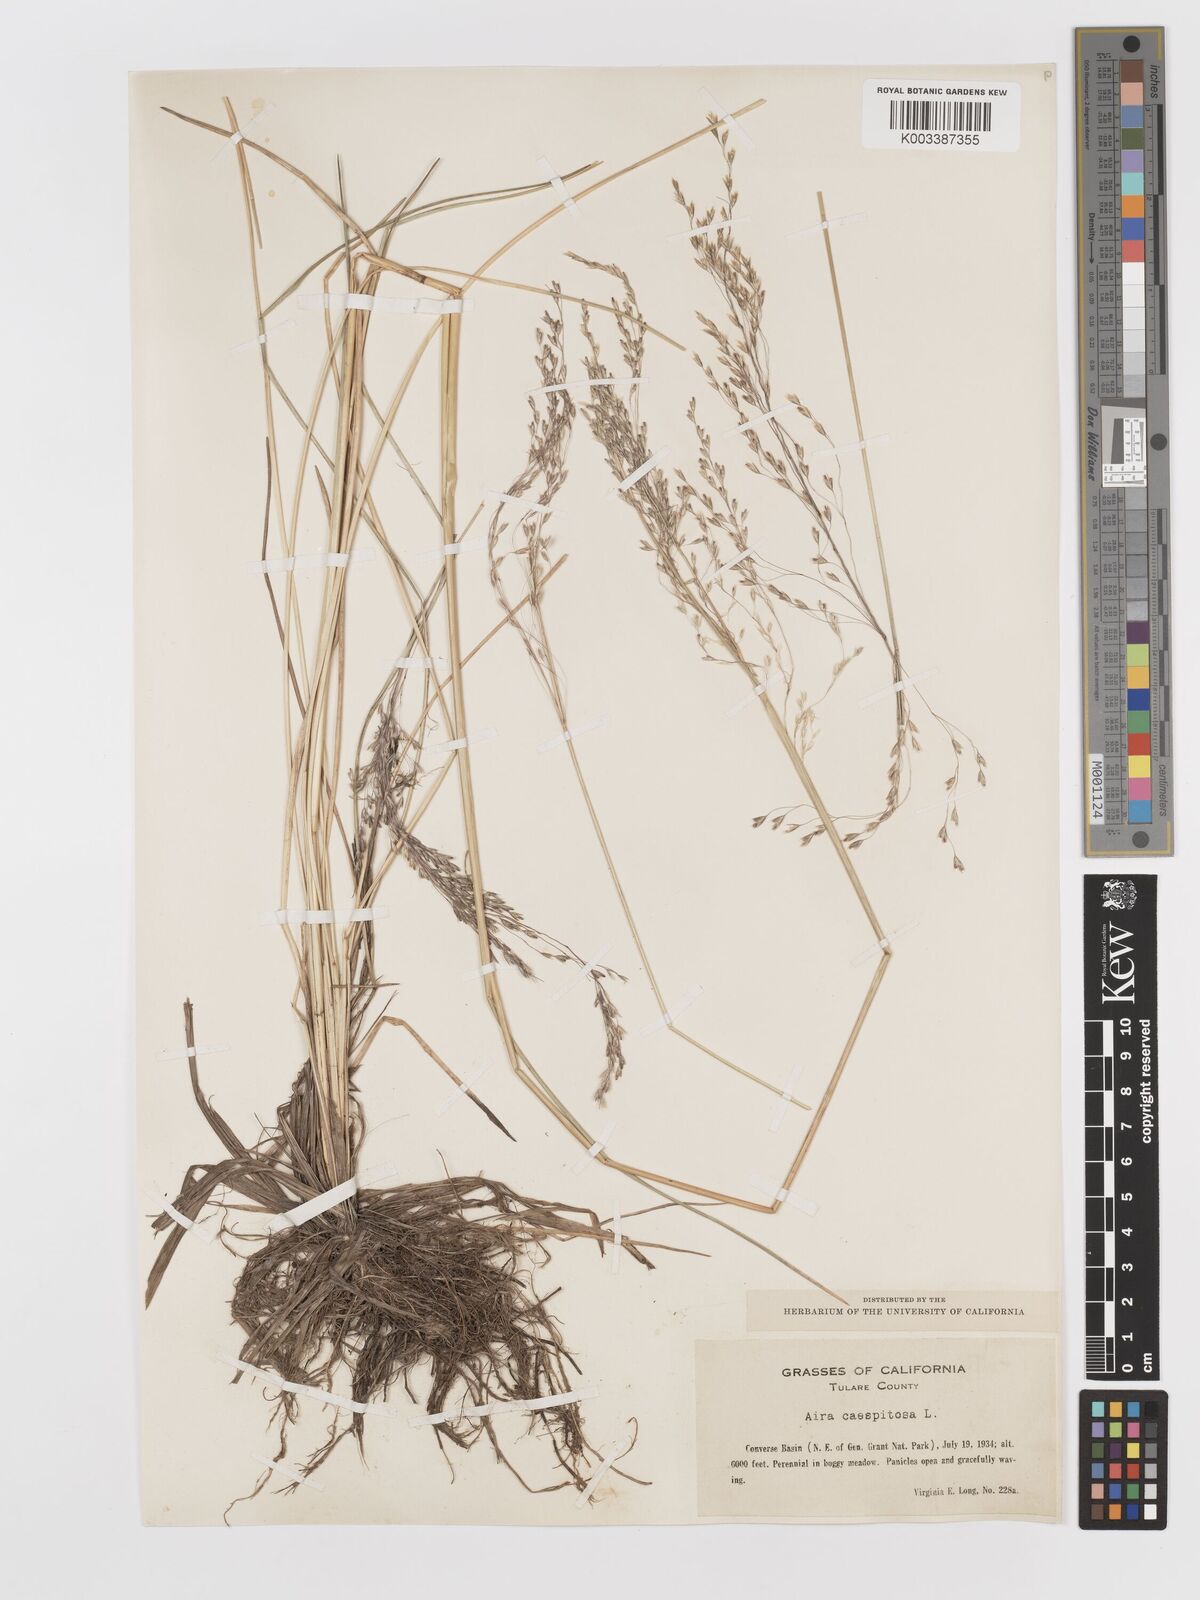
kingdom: Plantae
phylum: Tracheophyta
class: Liliopsida
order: Poales
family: Poaceae
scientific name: Poaceae
